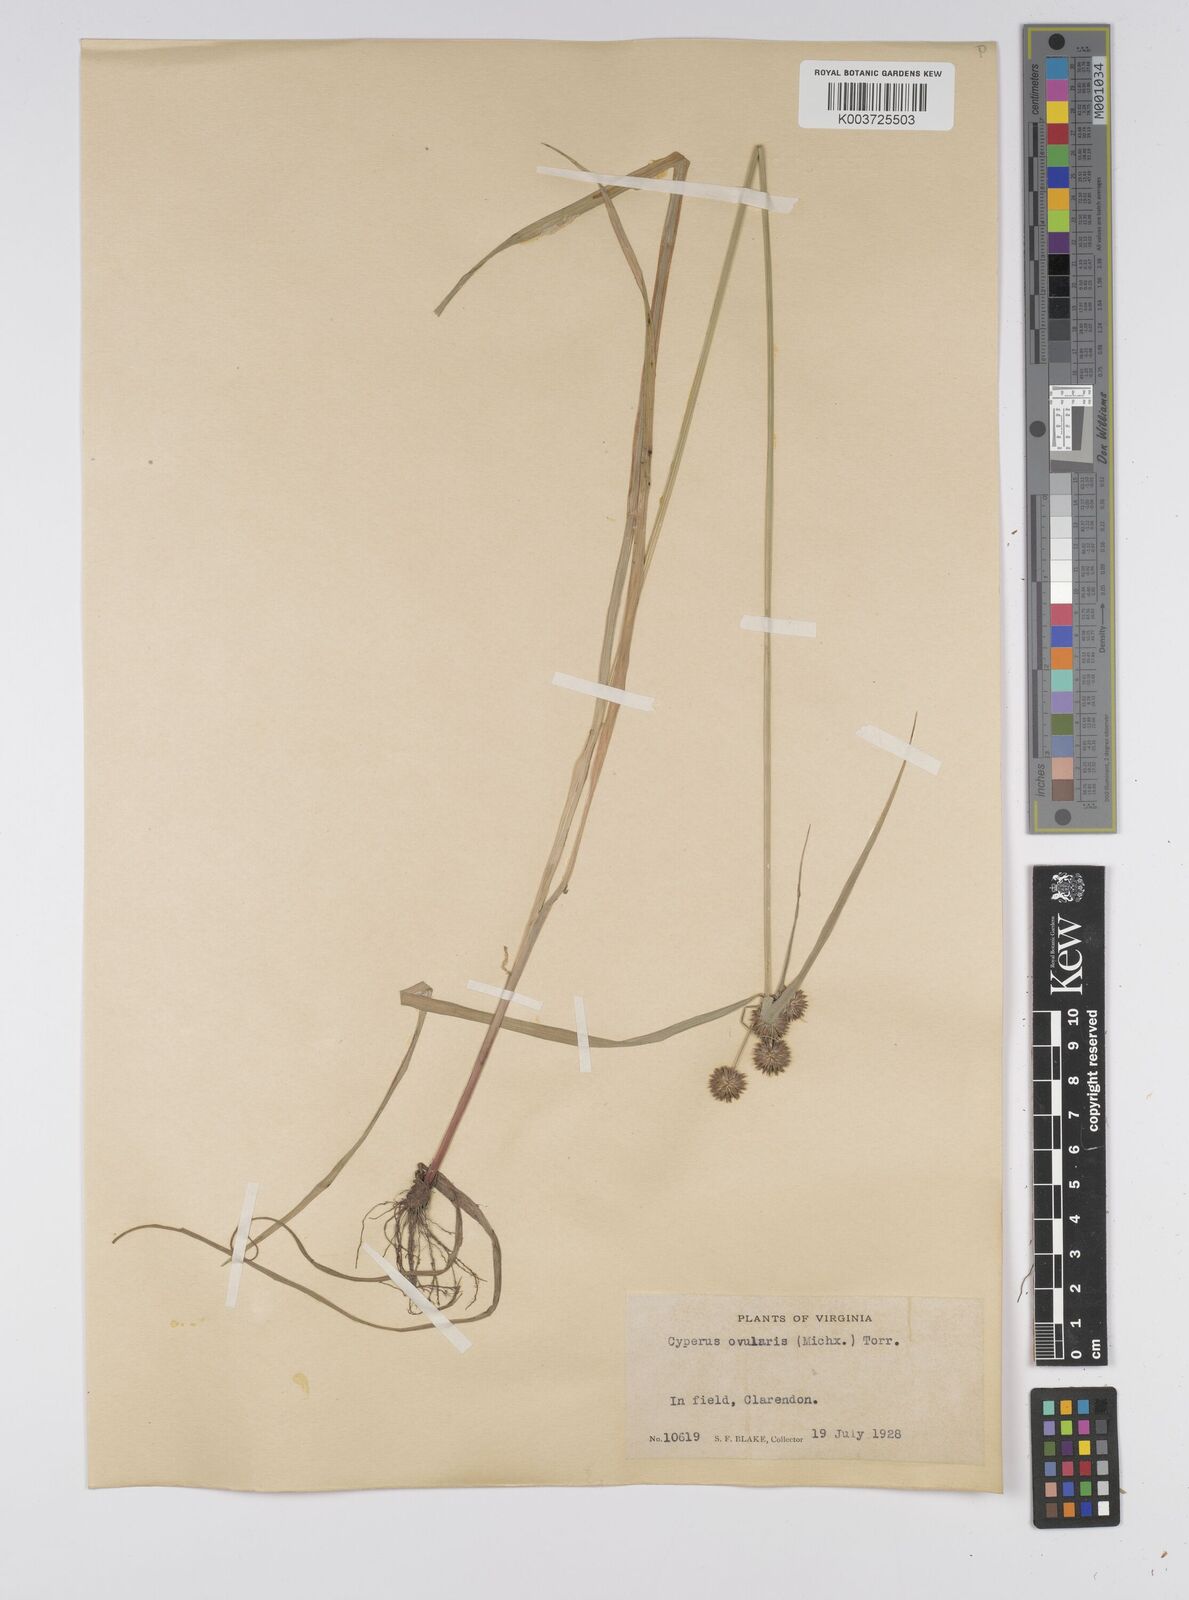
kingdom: Plantae
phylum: Tracheophyta
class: Liliopsida
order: Poales
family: Cyperaceae
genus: Cyperus
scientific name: Cyperus echinatus
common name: Teasel sedge
